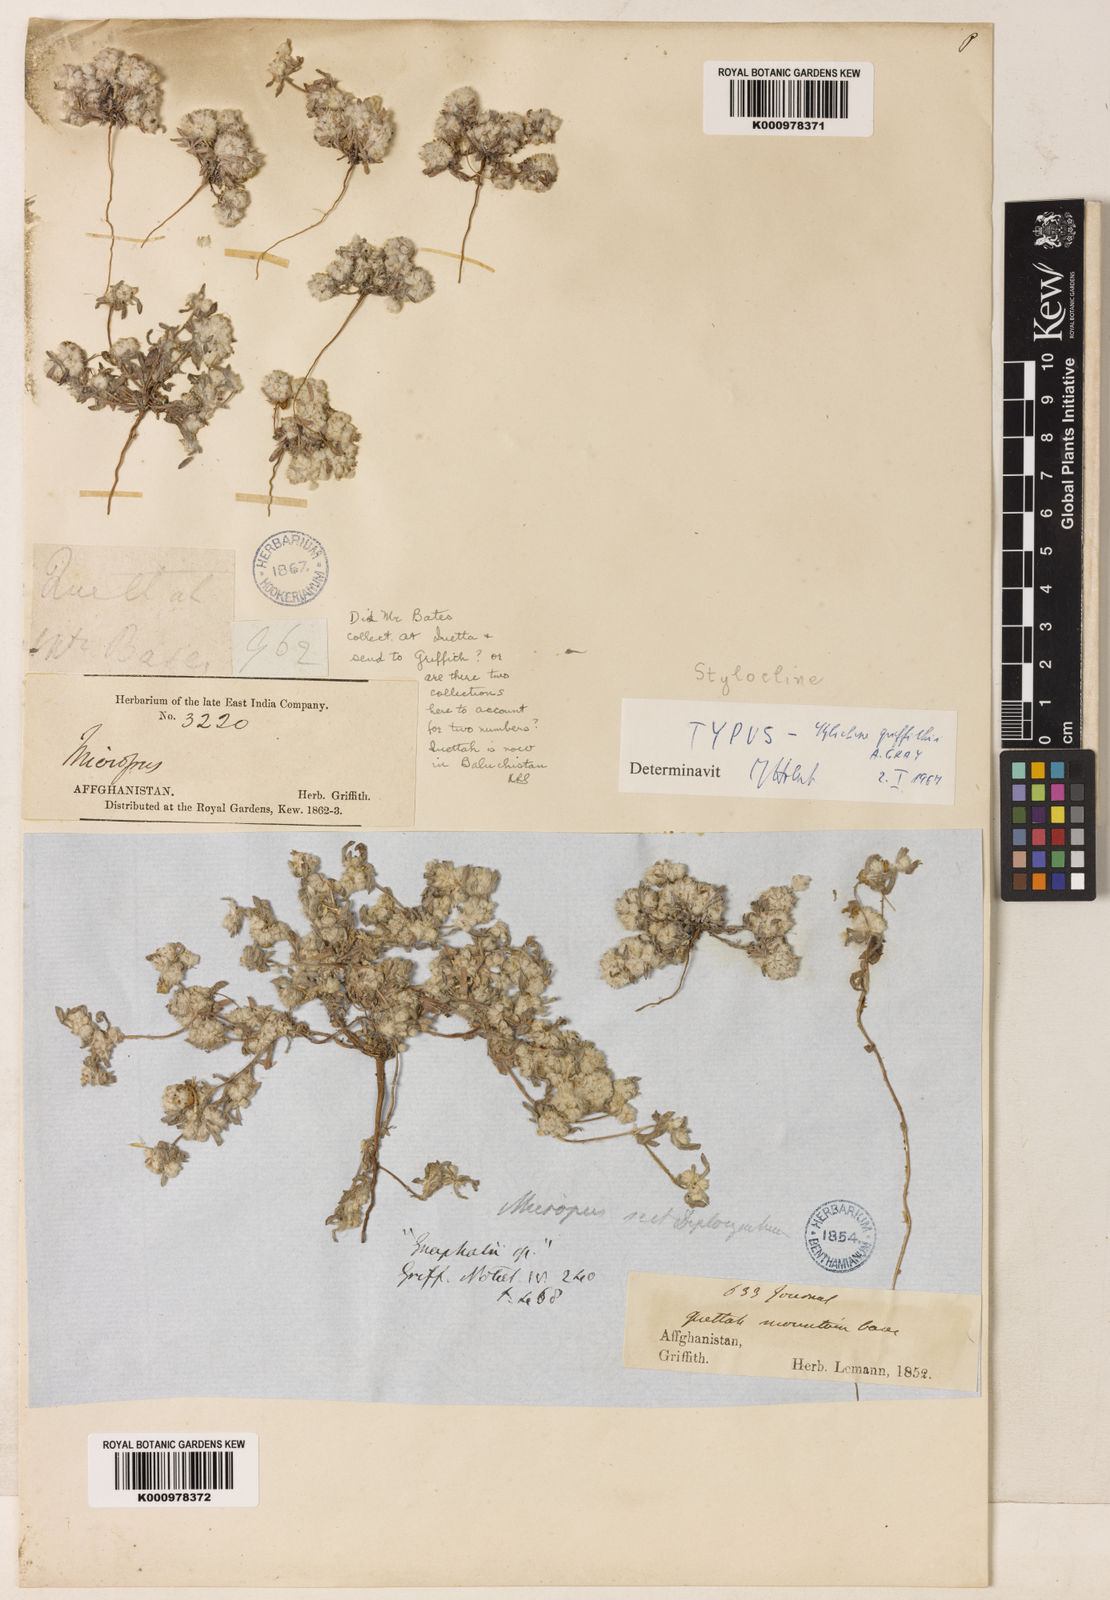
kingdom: Plantae
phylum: Tracheophyta
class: Magnoliopsida
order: Asterales
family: Asteraceae
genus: Filago
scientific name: Filago griffithii
